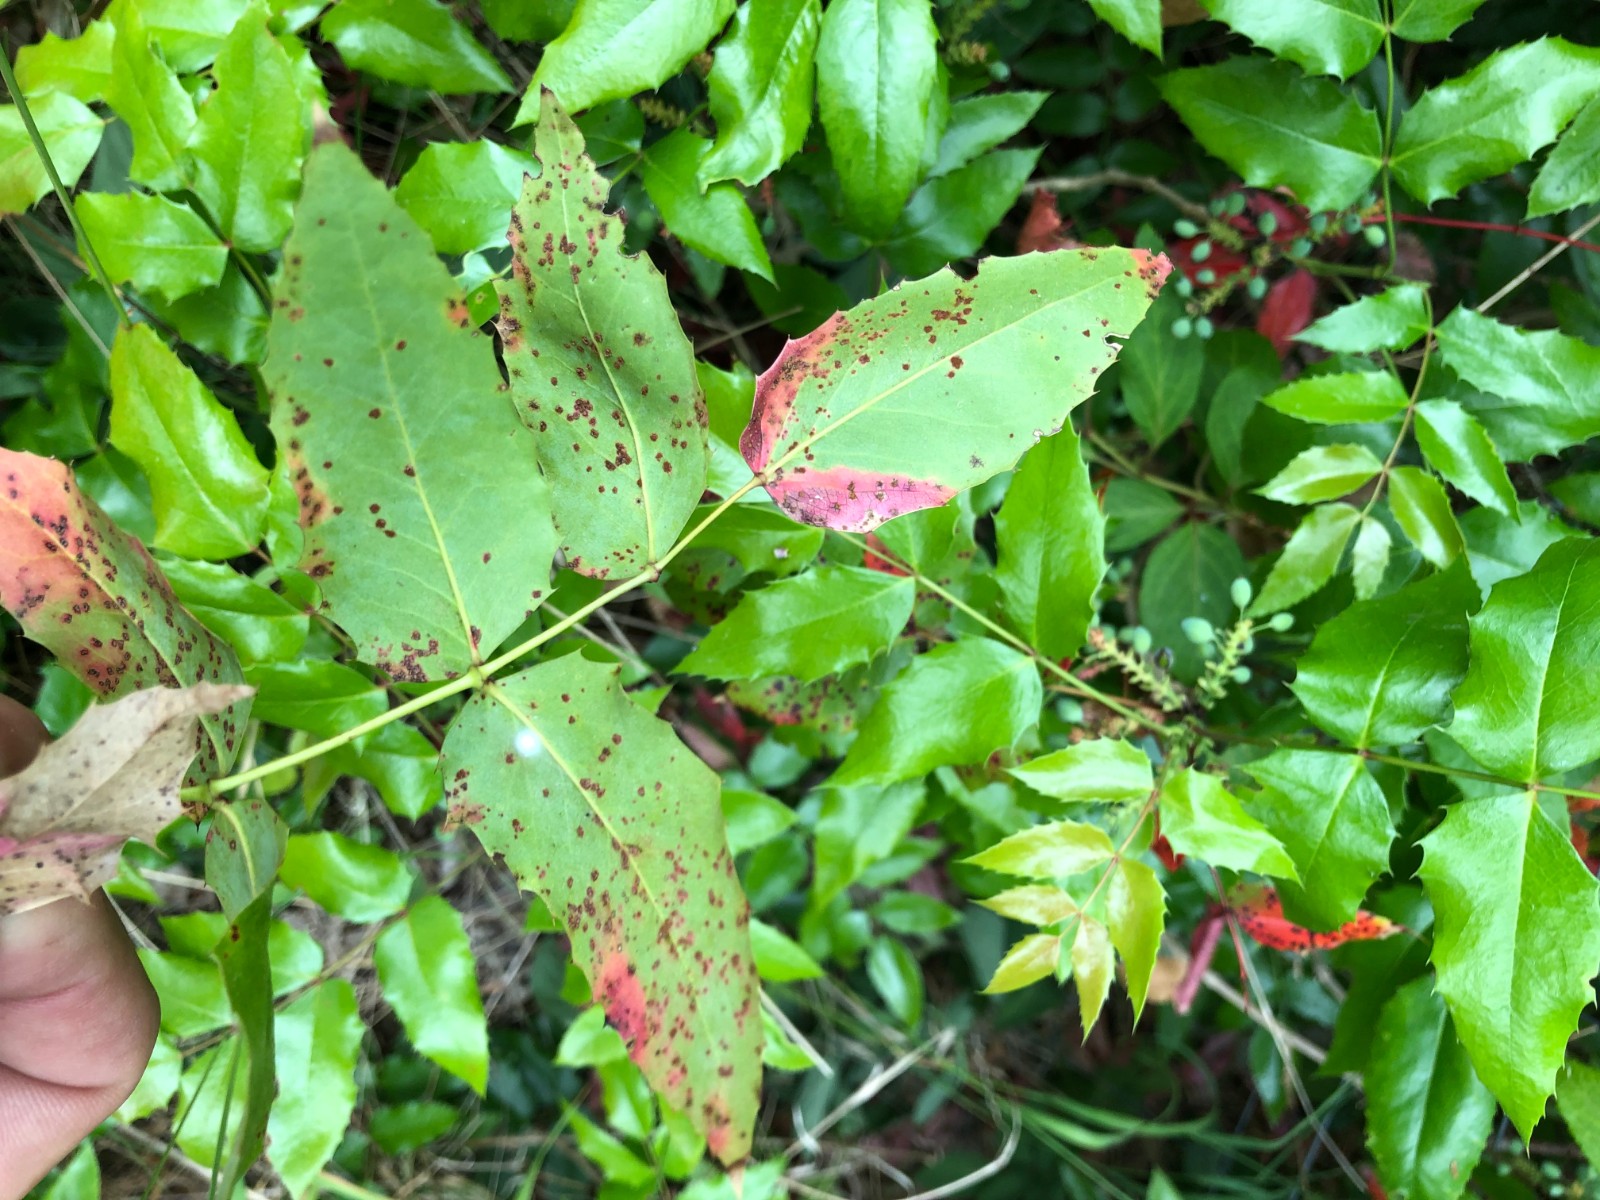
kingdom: Fungi
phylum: Basidiomycota
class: Pucciniomycetes
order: Pucciniales
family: Pucciniaceae
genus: Cumminsiella
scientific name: Cumminsiella mirabilissima
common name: mahonierust
